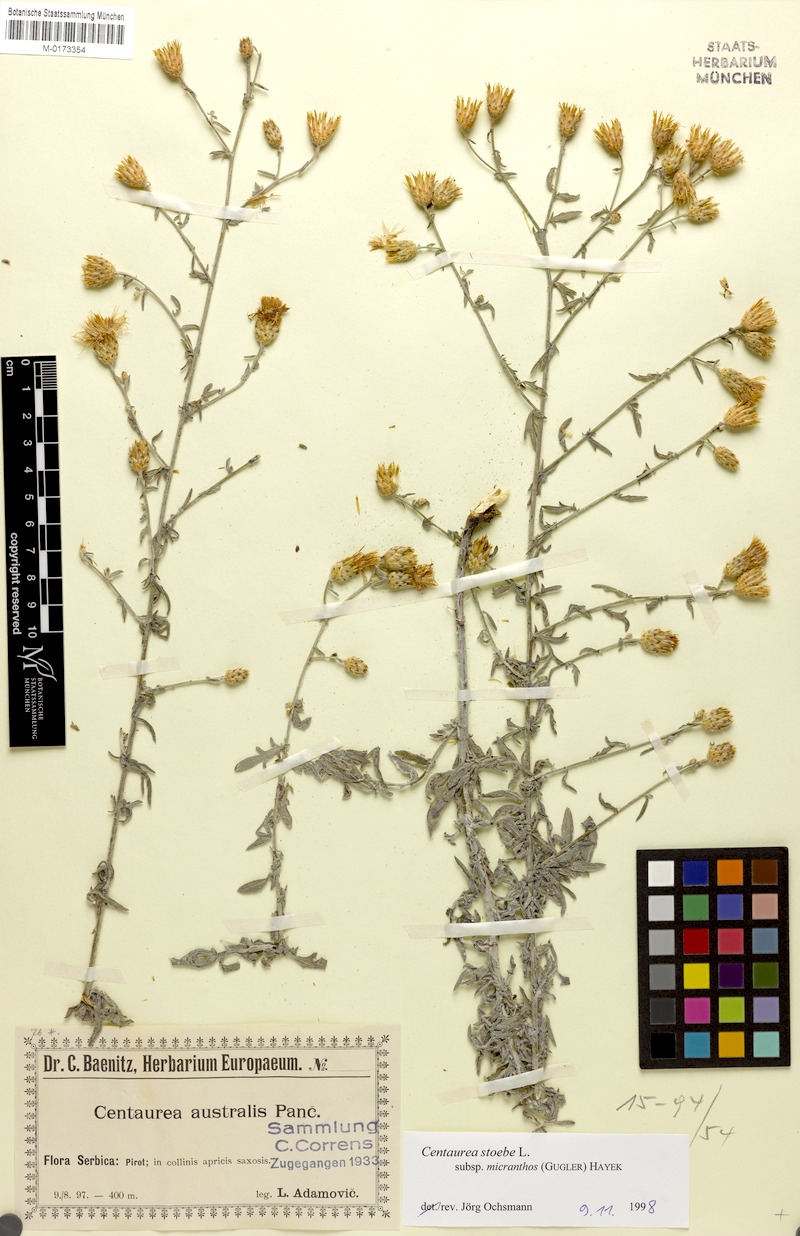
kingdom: Plantae
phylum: Tracheophyta
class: Magnoliopsida
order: Asterales
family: Asteraceae
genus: Centaurea
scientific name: Centaurea australis
